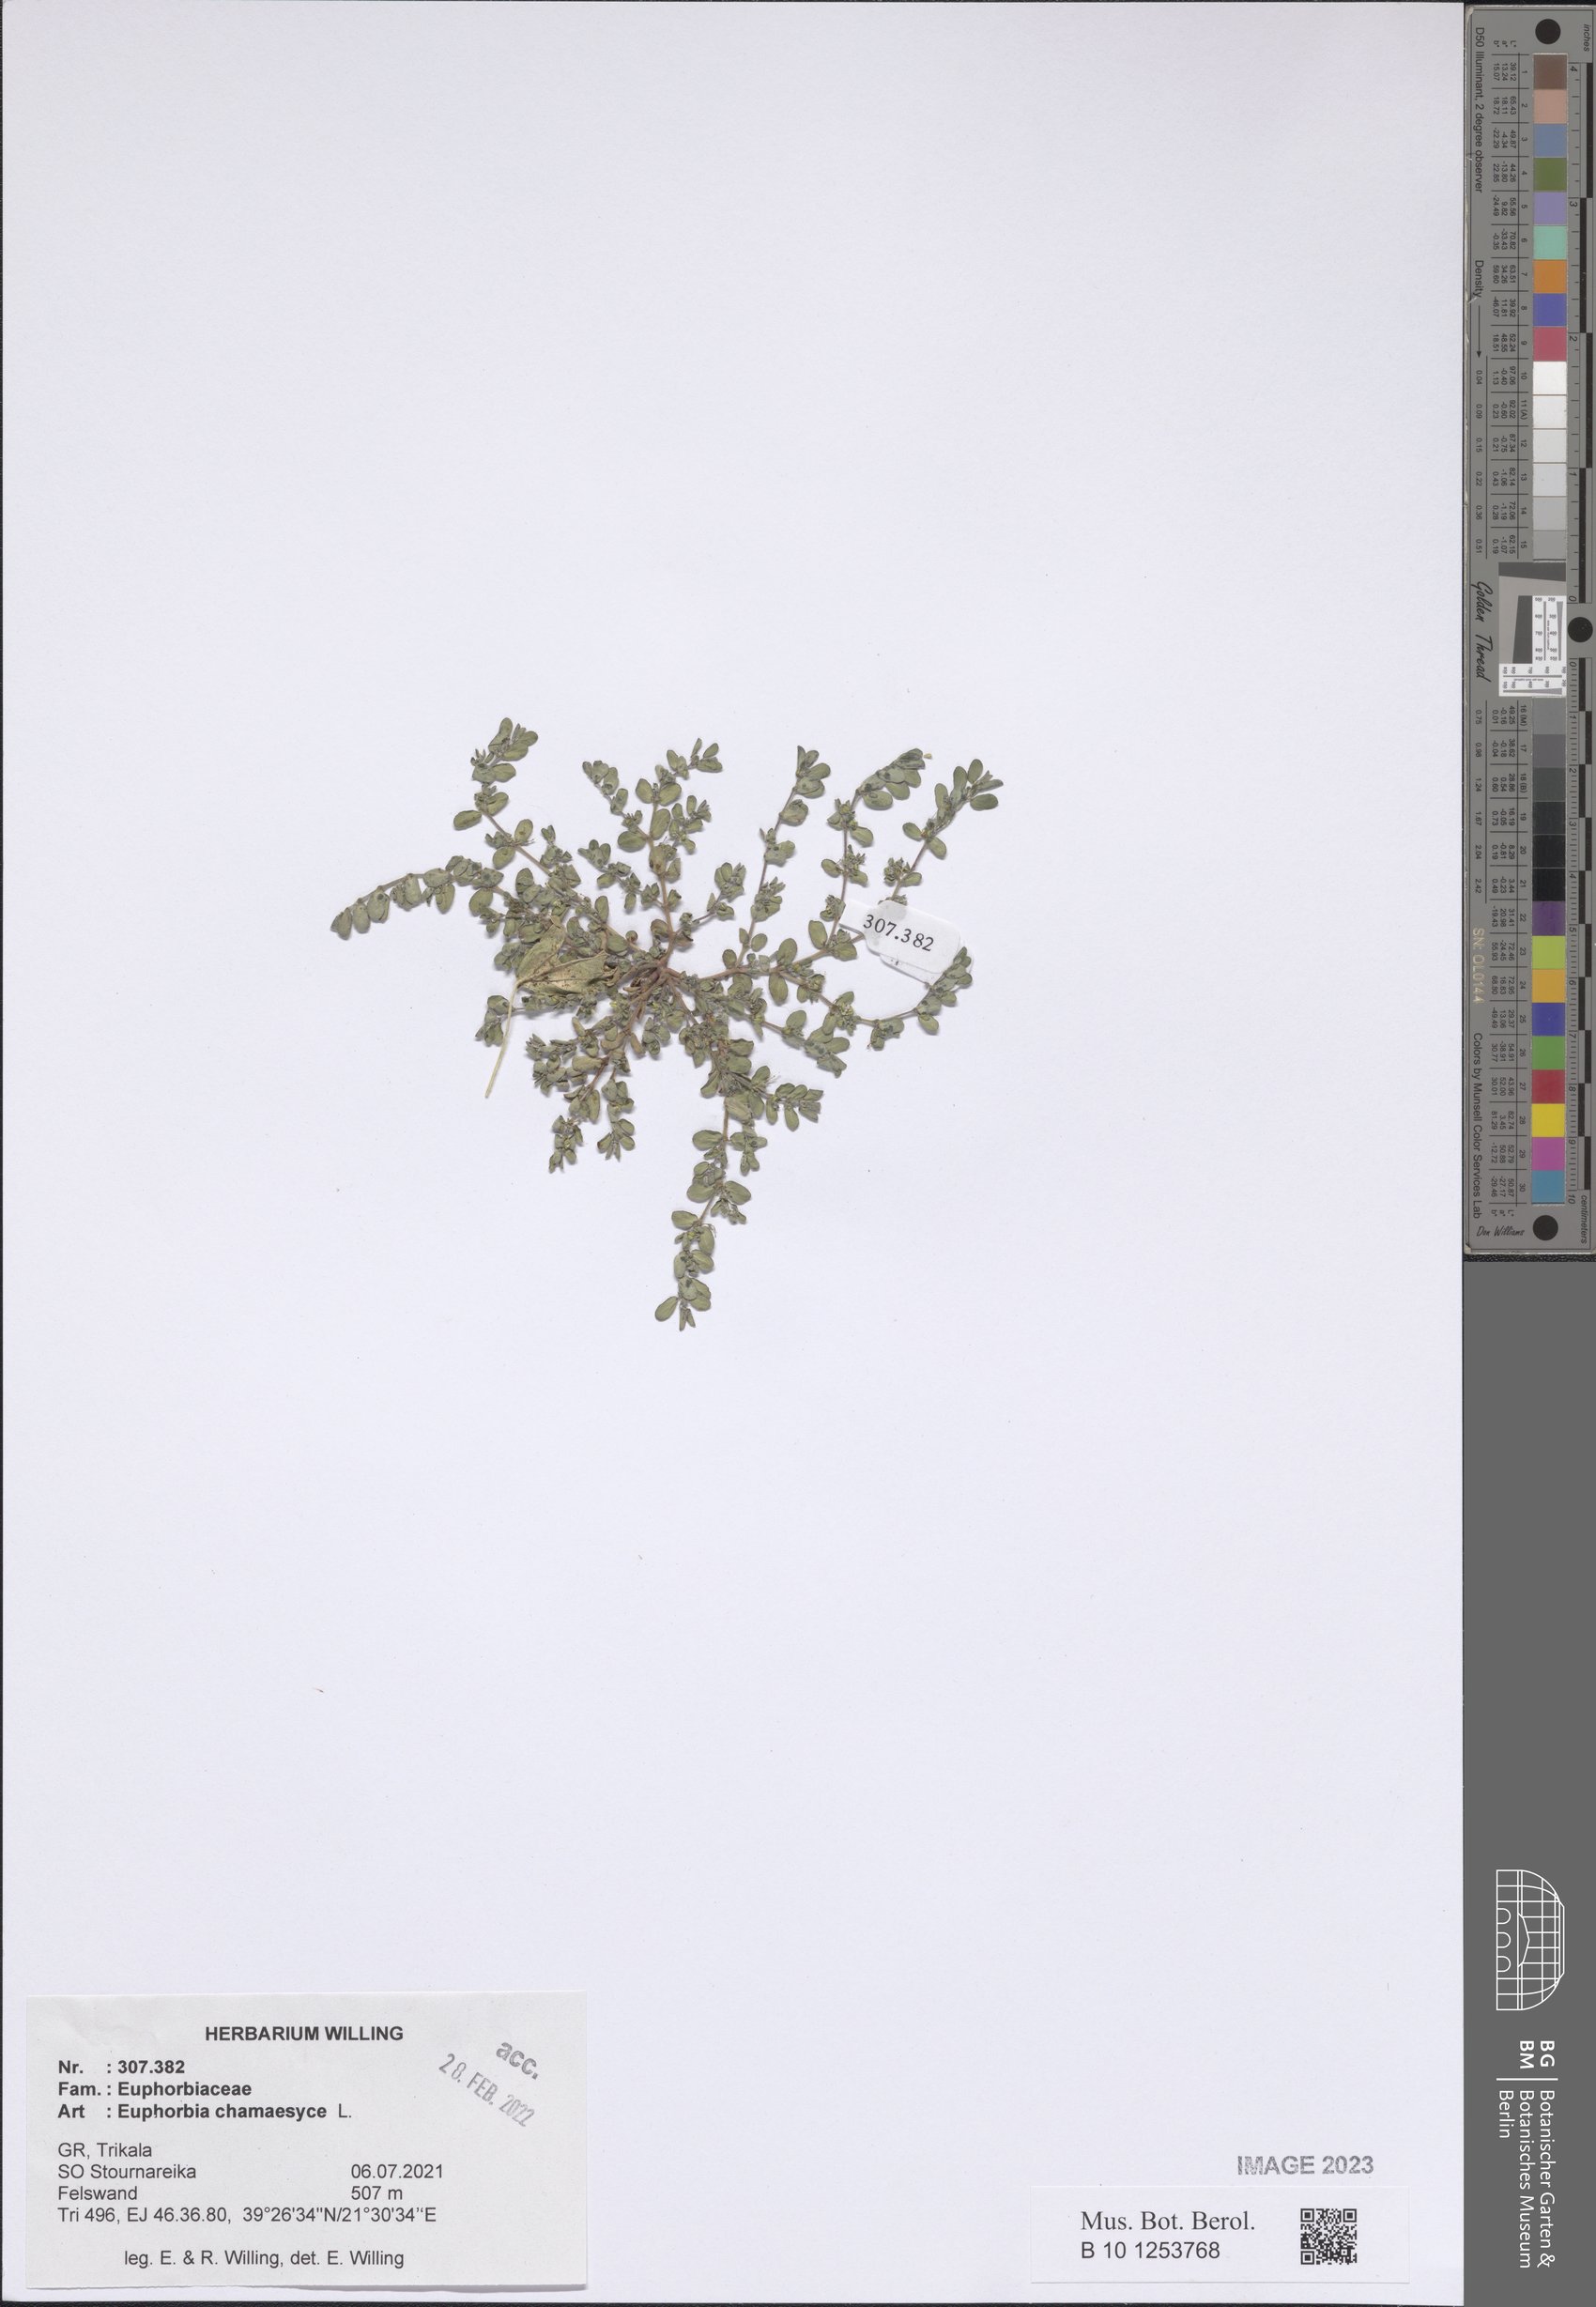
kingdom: Plantae
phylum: Tracheophyta
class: Magnoliopsida
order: Malpighiales
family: Euphorbiaceae
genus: Euphorbia
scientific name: Euphorbia chamaesyce
